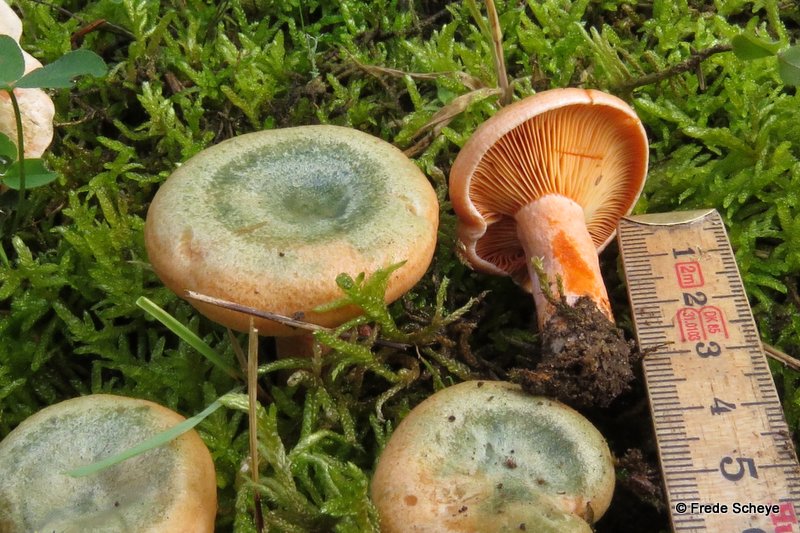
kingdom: Fungi
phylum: Basidiomycota
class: Agaricomycetes
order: Russulales
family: Russulaceae
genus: Lactarius
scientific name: Lactarius deterrimus
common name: gran-mælkehat
